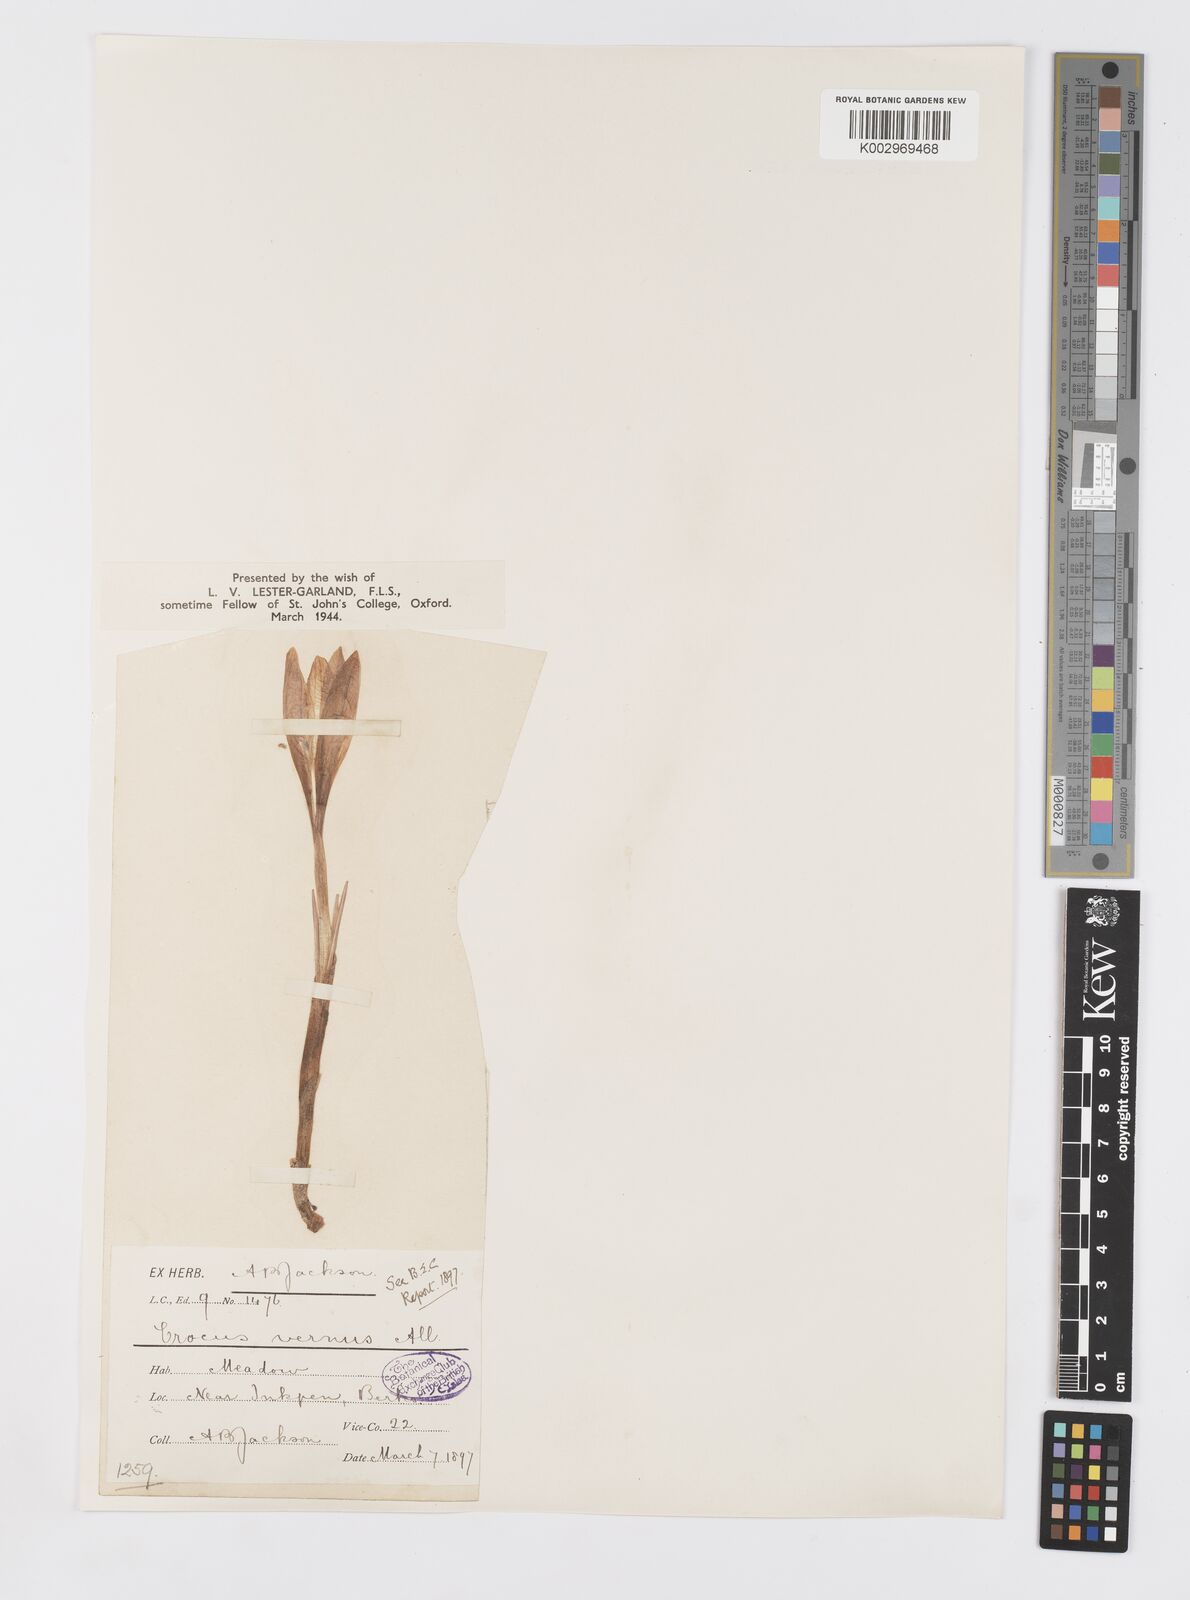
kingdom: Plantae
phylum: Tracheophyta
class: Liliopsida
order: Asparagales
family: Iridaceae
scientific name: Iridaceae
